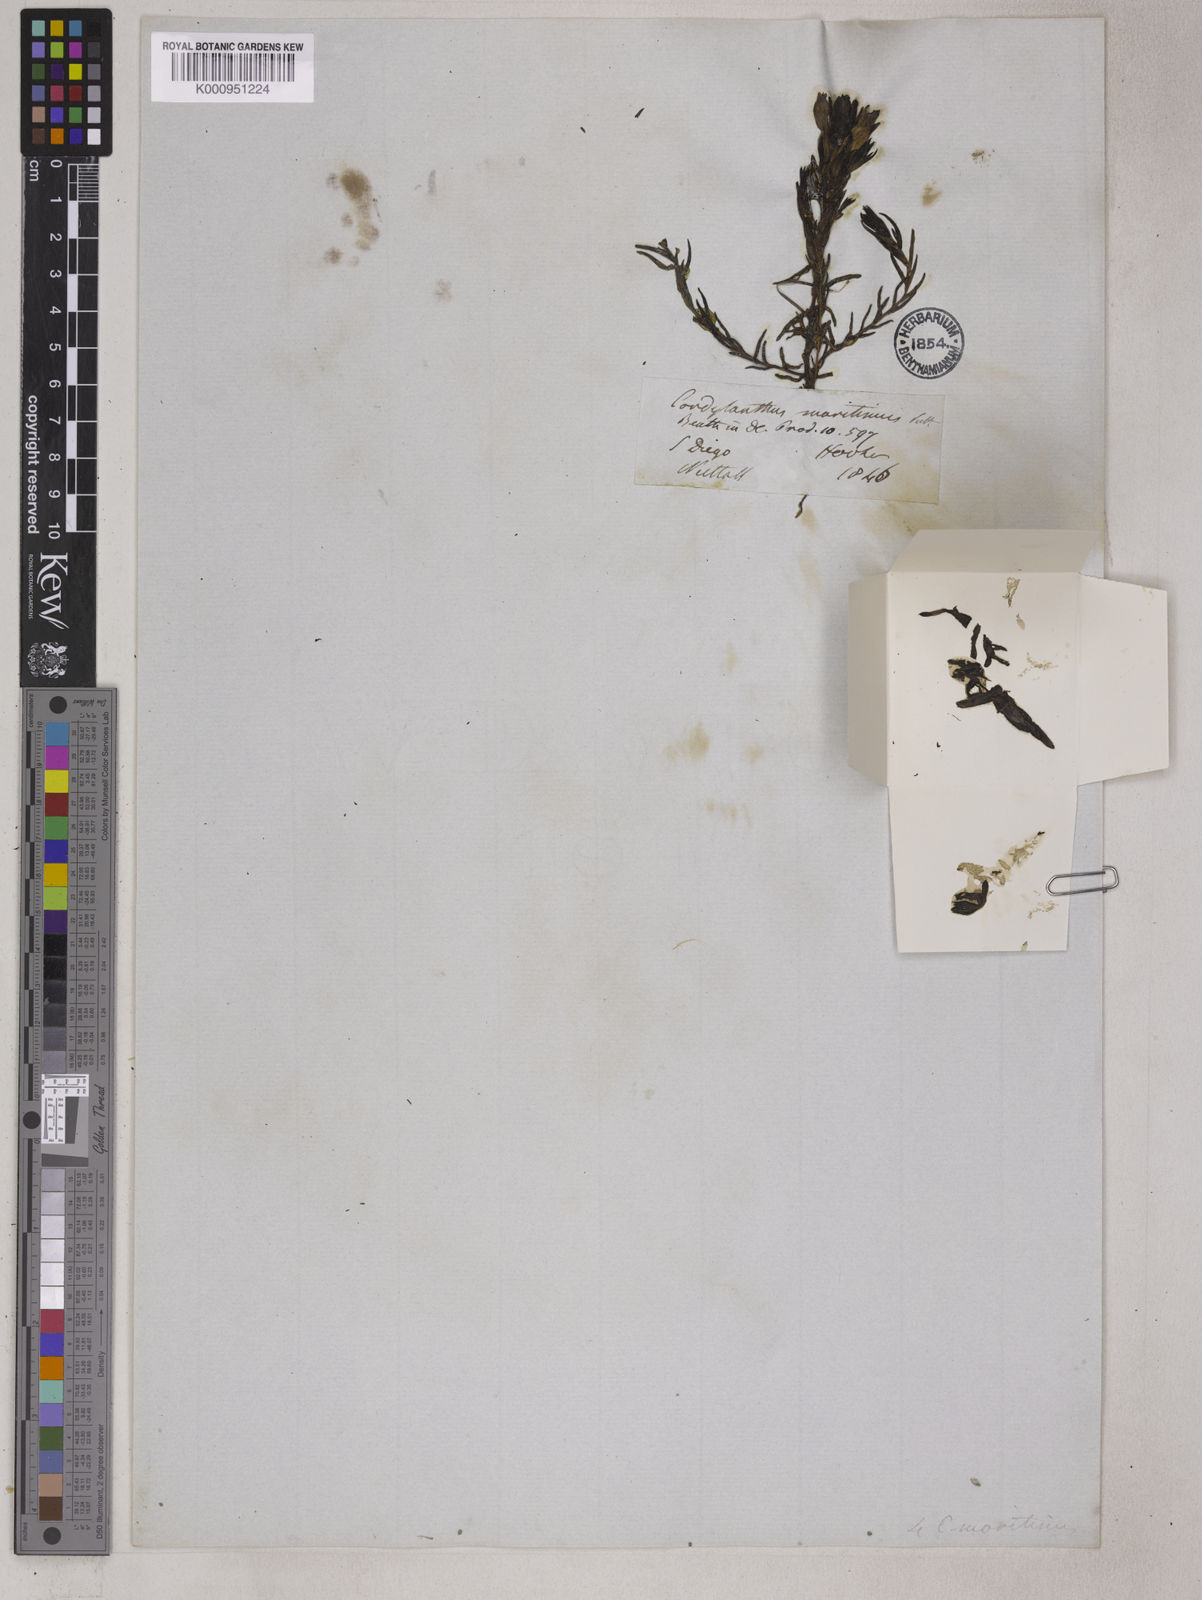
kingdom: Plantae
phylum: Tracheophyta
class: Magnoliopsida
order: Lamiales
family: Orobanchaceae
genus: Chloropyron
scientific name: Chloropyron maritimum
